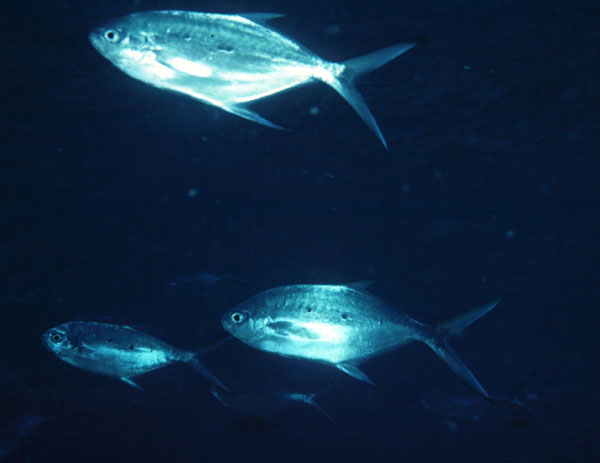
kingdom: Animalia
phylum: Chordata
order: Perciformes
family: Carangidae
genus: Trachinotus
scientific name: Trachinotus baillonii
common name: Smallspotted dart
